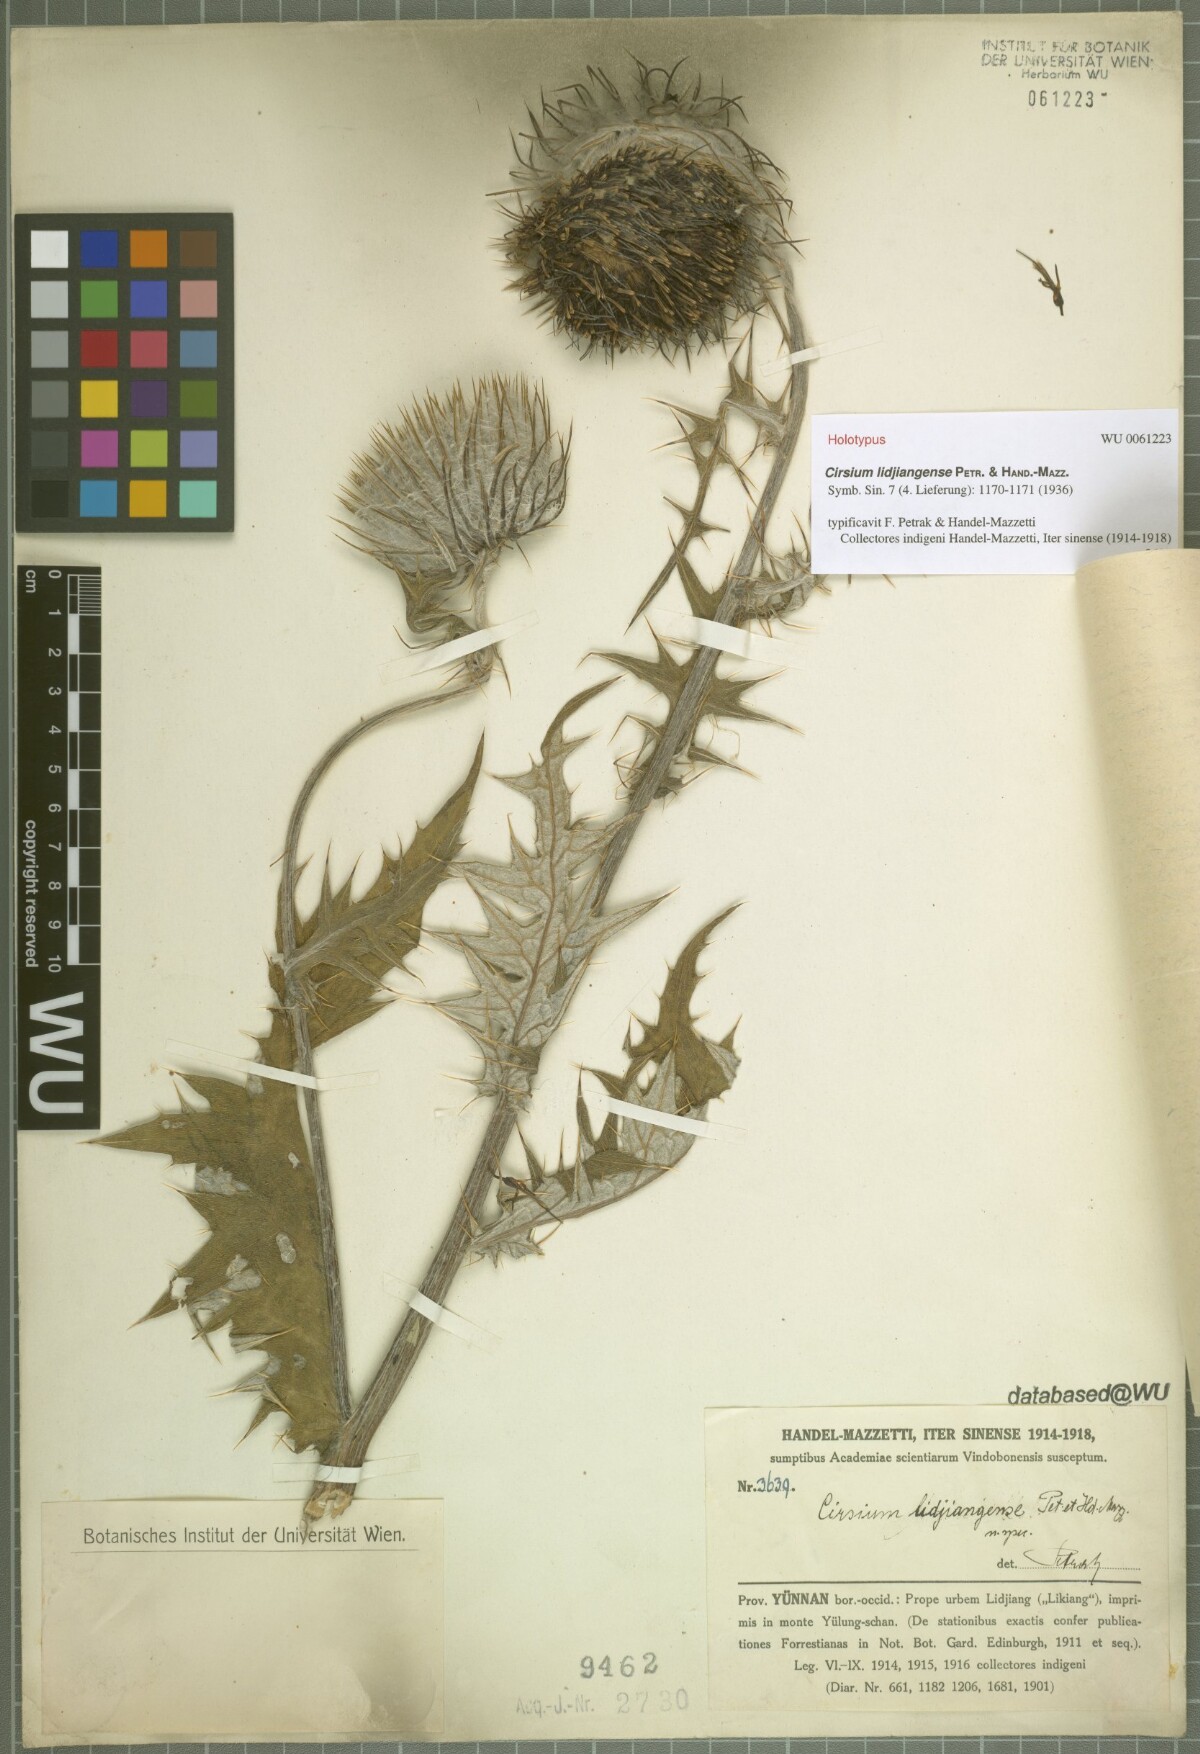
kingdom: Plantae
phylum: Tracheophyta
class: Magnoliopsida
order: Asterales
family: Asteraceae
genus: Lophiolepis
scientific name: Lophiolepis lidjiangensis
